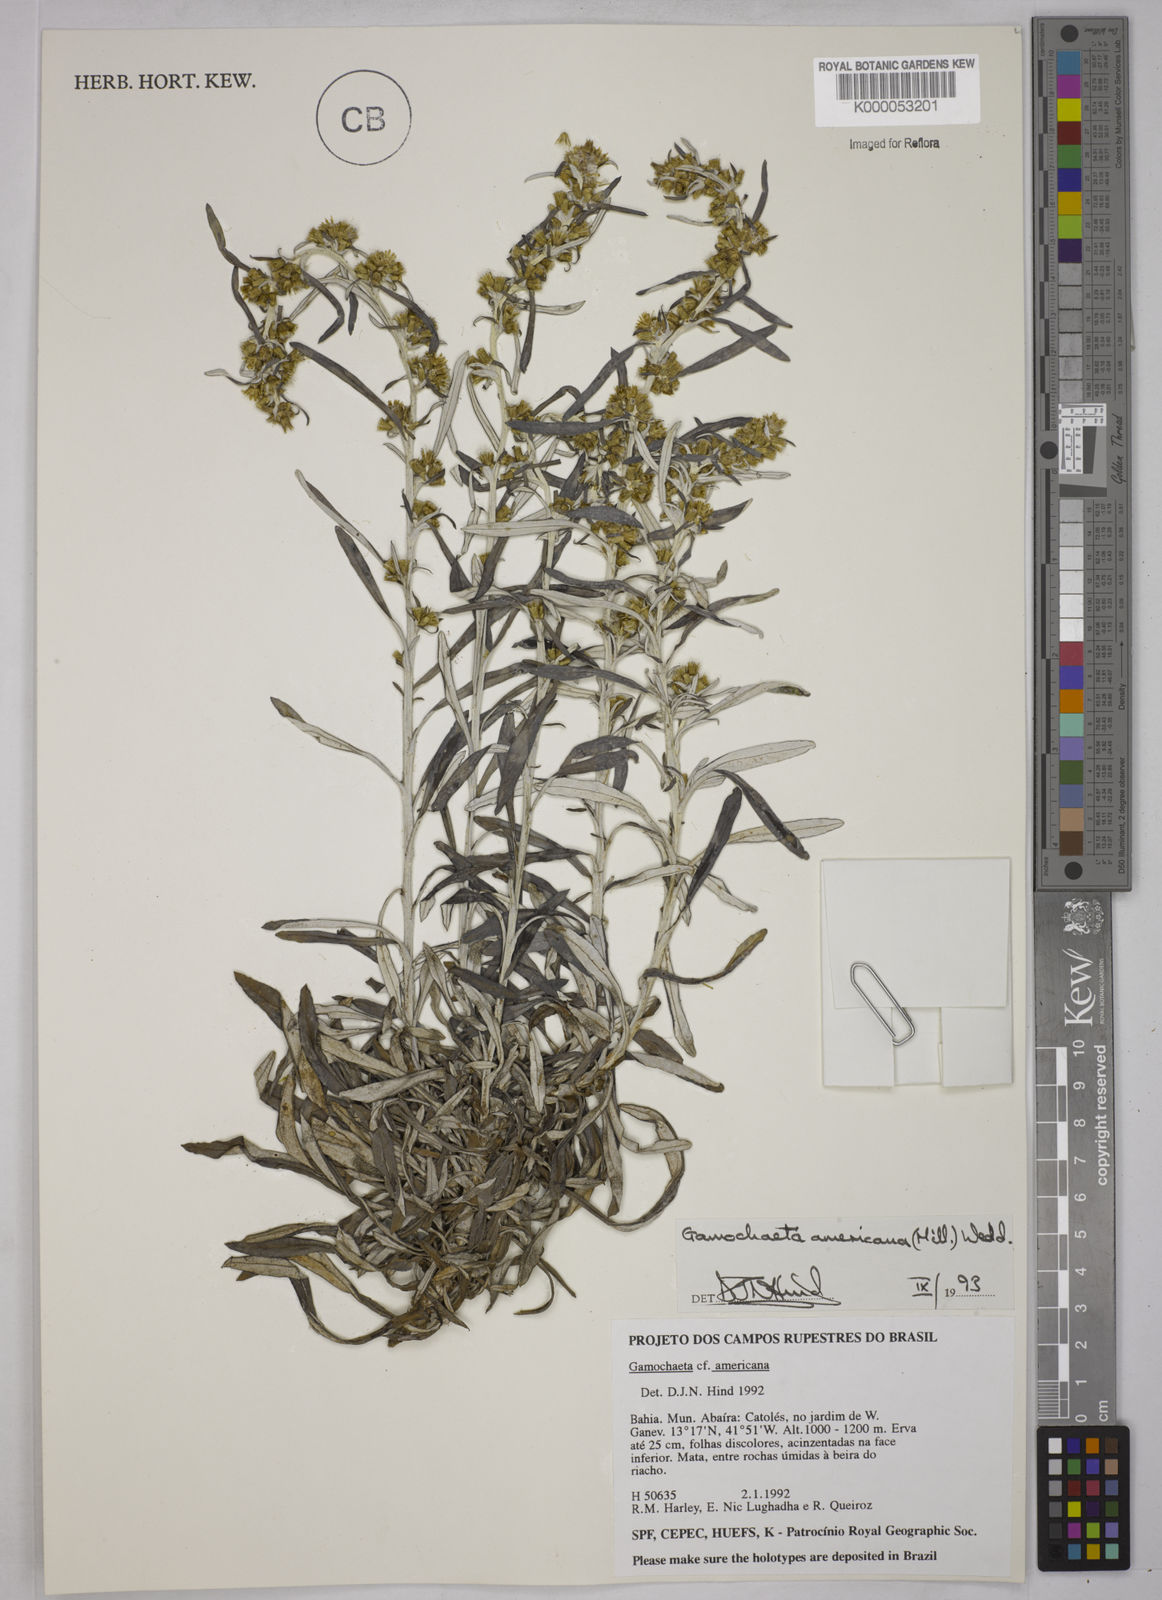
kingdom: Plantae
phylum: Tracheophyta
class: Magnoliopsida
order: Asterales
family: Asteraceae
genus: Gamochaeta
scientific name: Gamochaeta americana
